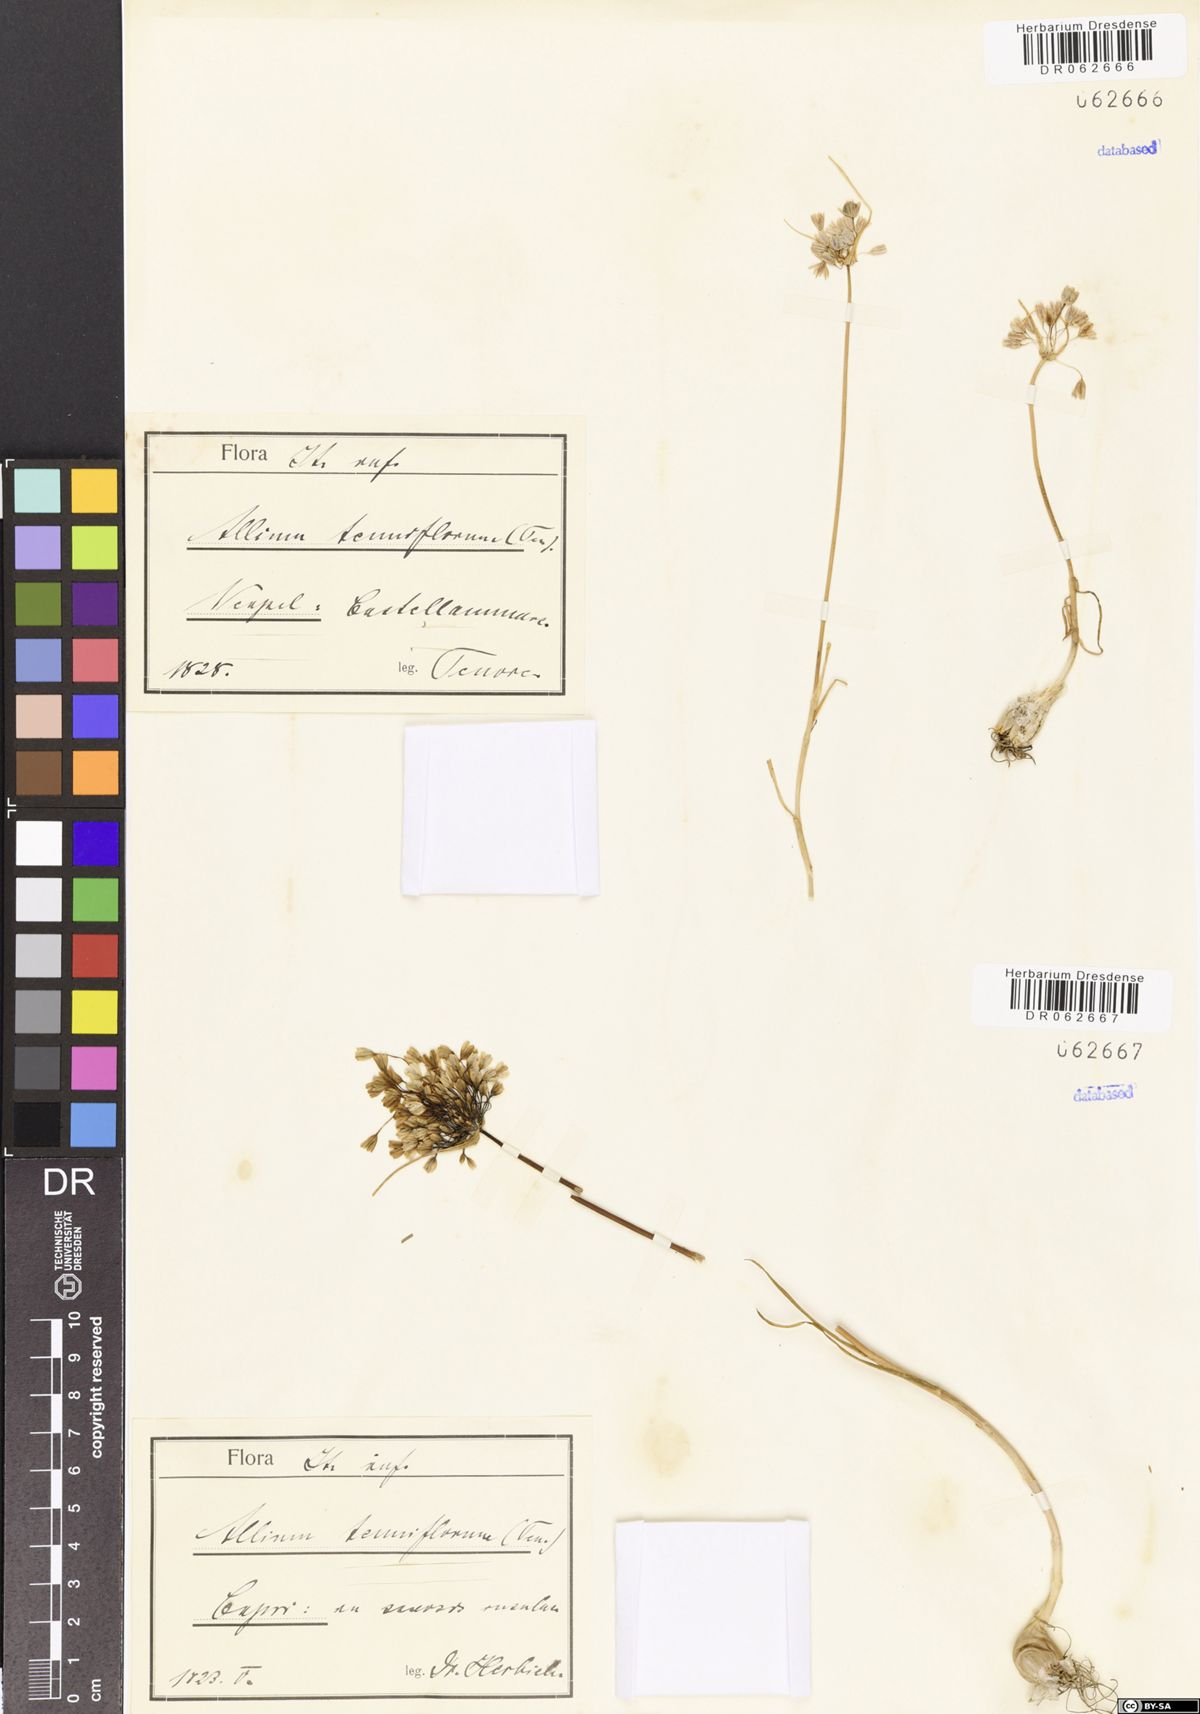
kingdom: Plantae
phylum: Tracheophyta
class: Liliopsida
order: Asparagales
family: Amaryllidaceae
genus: Allium
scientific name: Allium tenuiflorum
